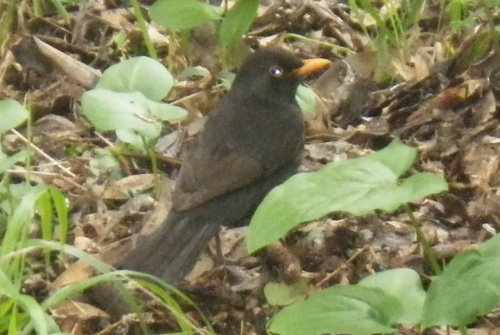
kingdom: Animalia
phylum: Chordata
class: Aves
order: Passeriformes
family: Turdidae
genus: Turdus
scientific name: Turdus merula
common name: Common blackbird
